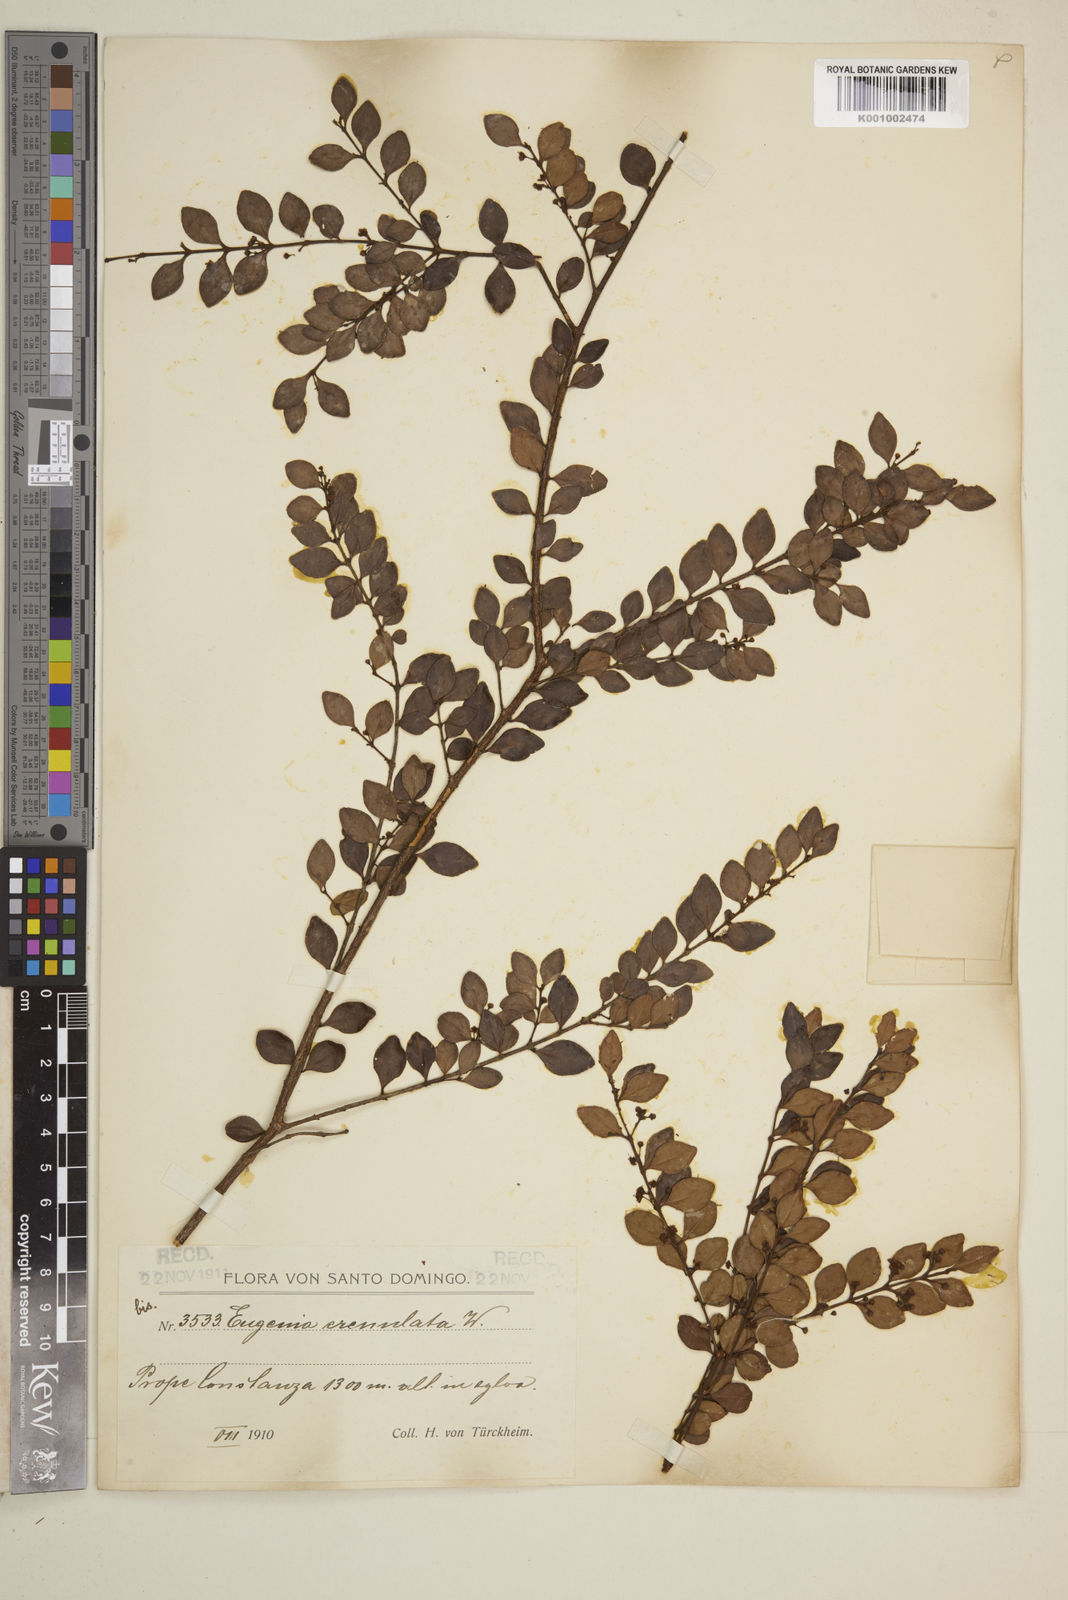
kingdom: Plantae
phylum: Tracheophyta
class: Magnoliopsida
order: Myrtales
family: Myrtaceae
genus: Eugenia
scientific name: Eugenia crenulata
